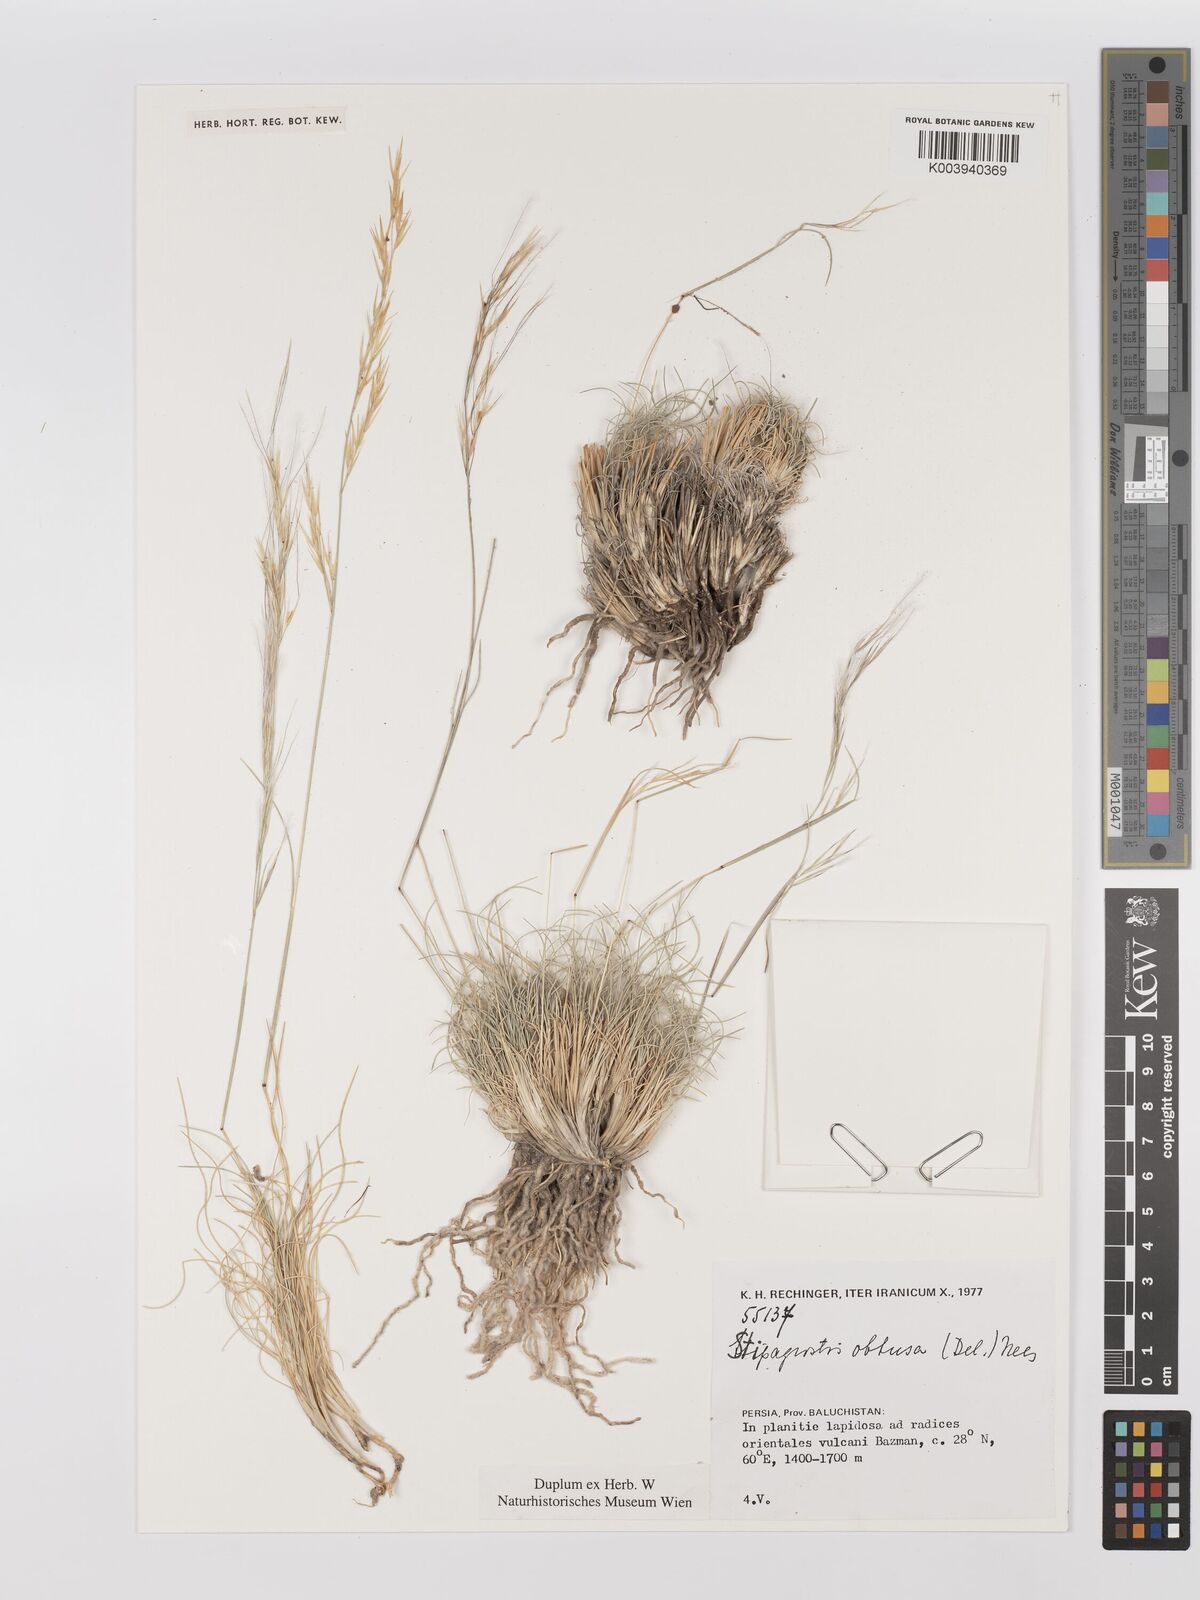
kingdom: Plantae
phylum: Tracheophyta
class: Liliopsida
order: Poales
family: Poaceae
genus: Stipagrostis
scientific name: Stipagrostis obtusa
